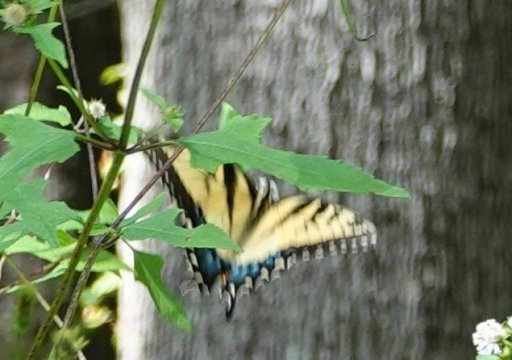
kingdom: Animalia
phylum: Arthropoda
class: Insecta
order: Lepidoptera
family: Papilionidae
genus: Pterourus
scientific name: Pterourus glaucus
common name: Eastern Tiger Swallowtail
